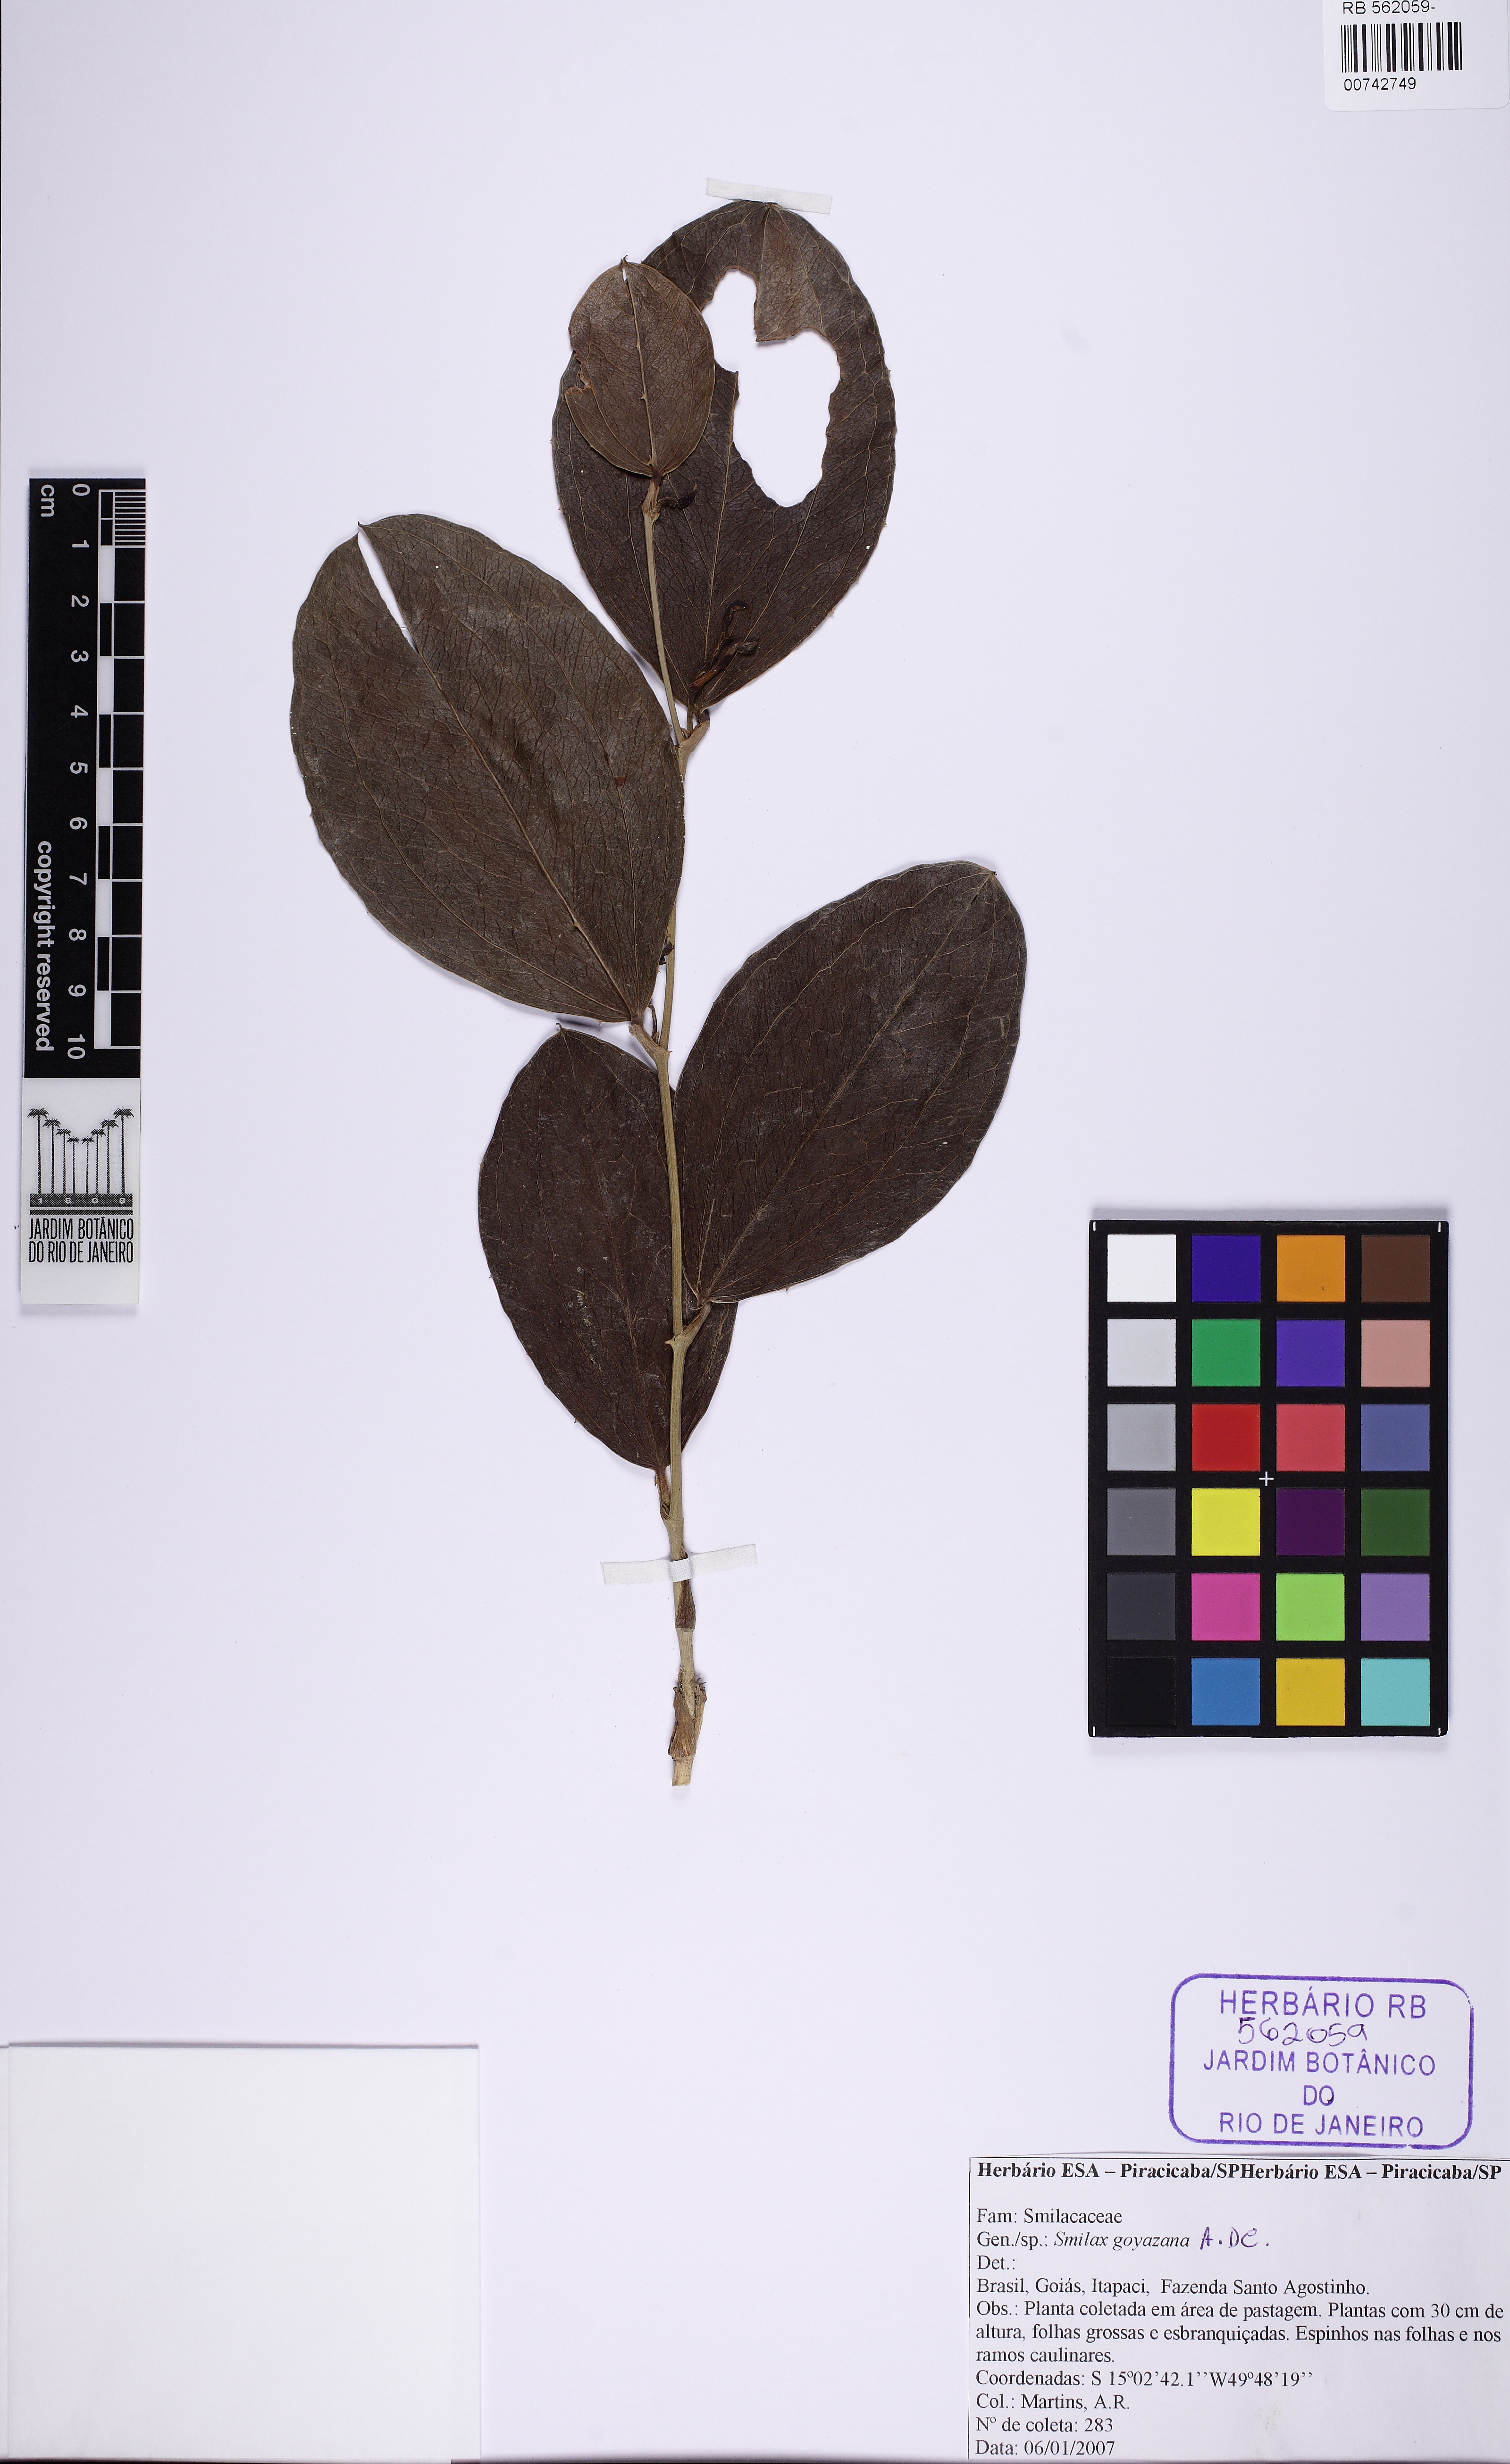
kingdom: Plantae
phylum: Tracheophyta
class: Liliopsida
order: Liliales
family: Smilacaceae
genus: Smilax
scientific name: Smilax goyazana
